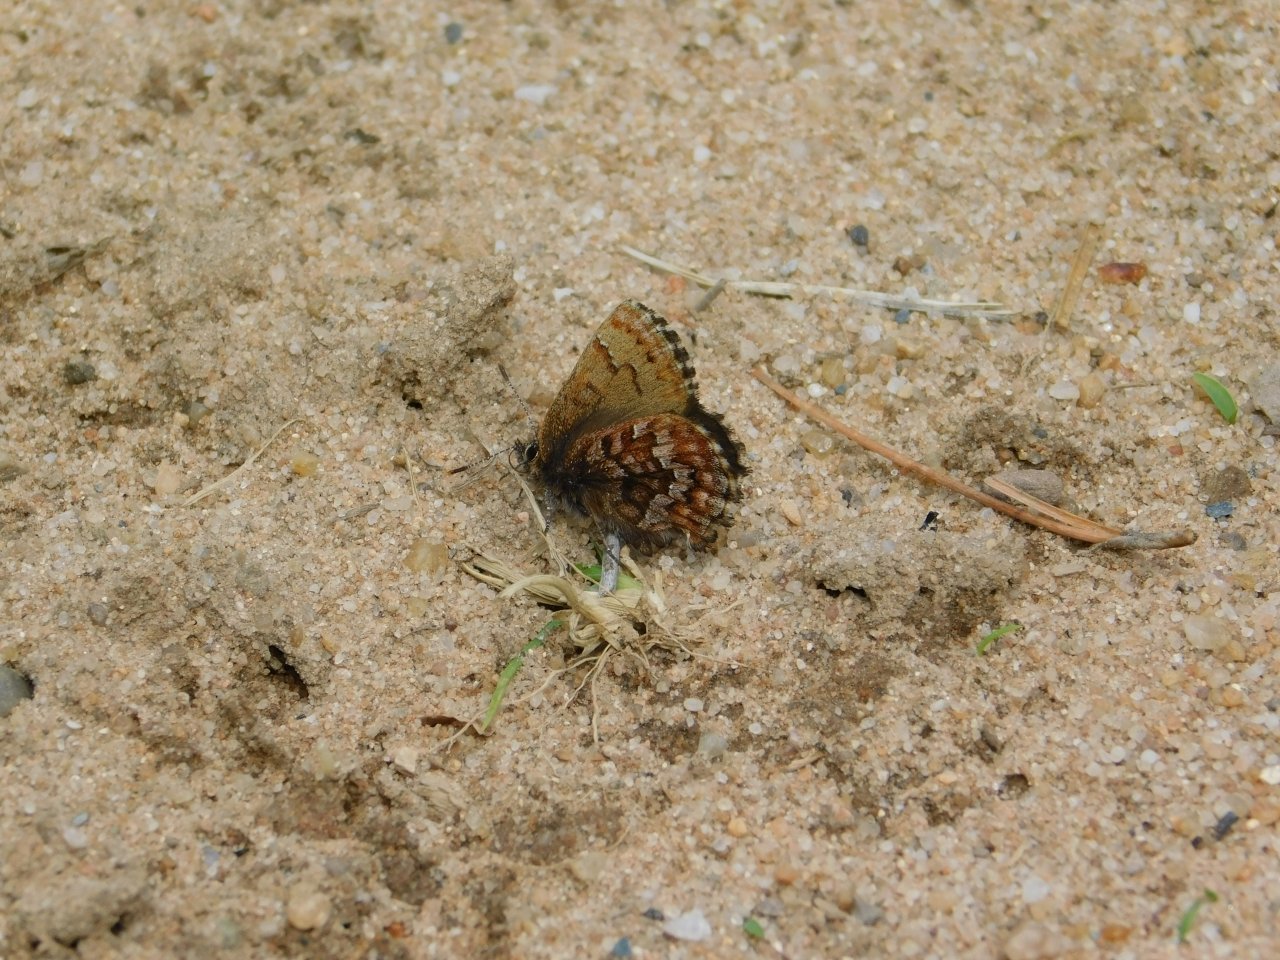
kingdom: Animalia
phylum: Arthropoda
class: Insecta
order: Lepidoptera
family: Lycaenidae
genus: Incisalia
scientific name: Incisalia niphon
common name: Eastern Pine Elfin
